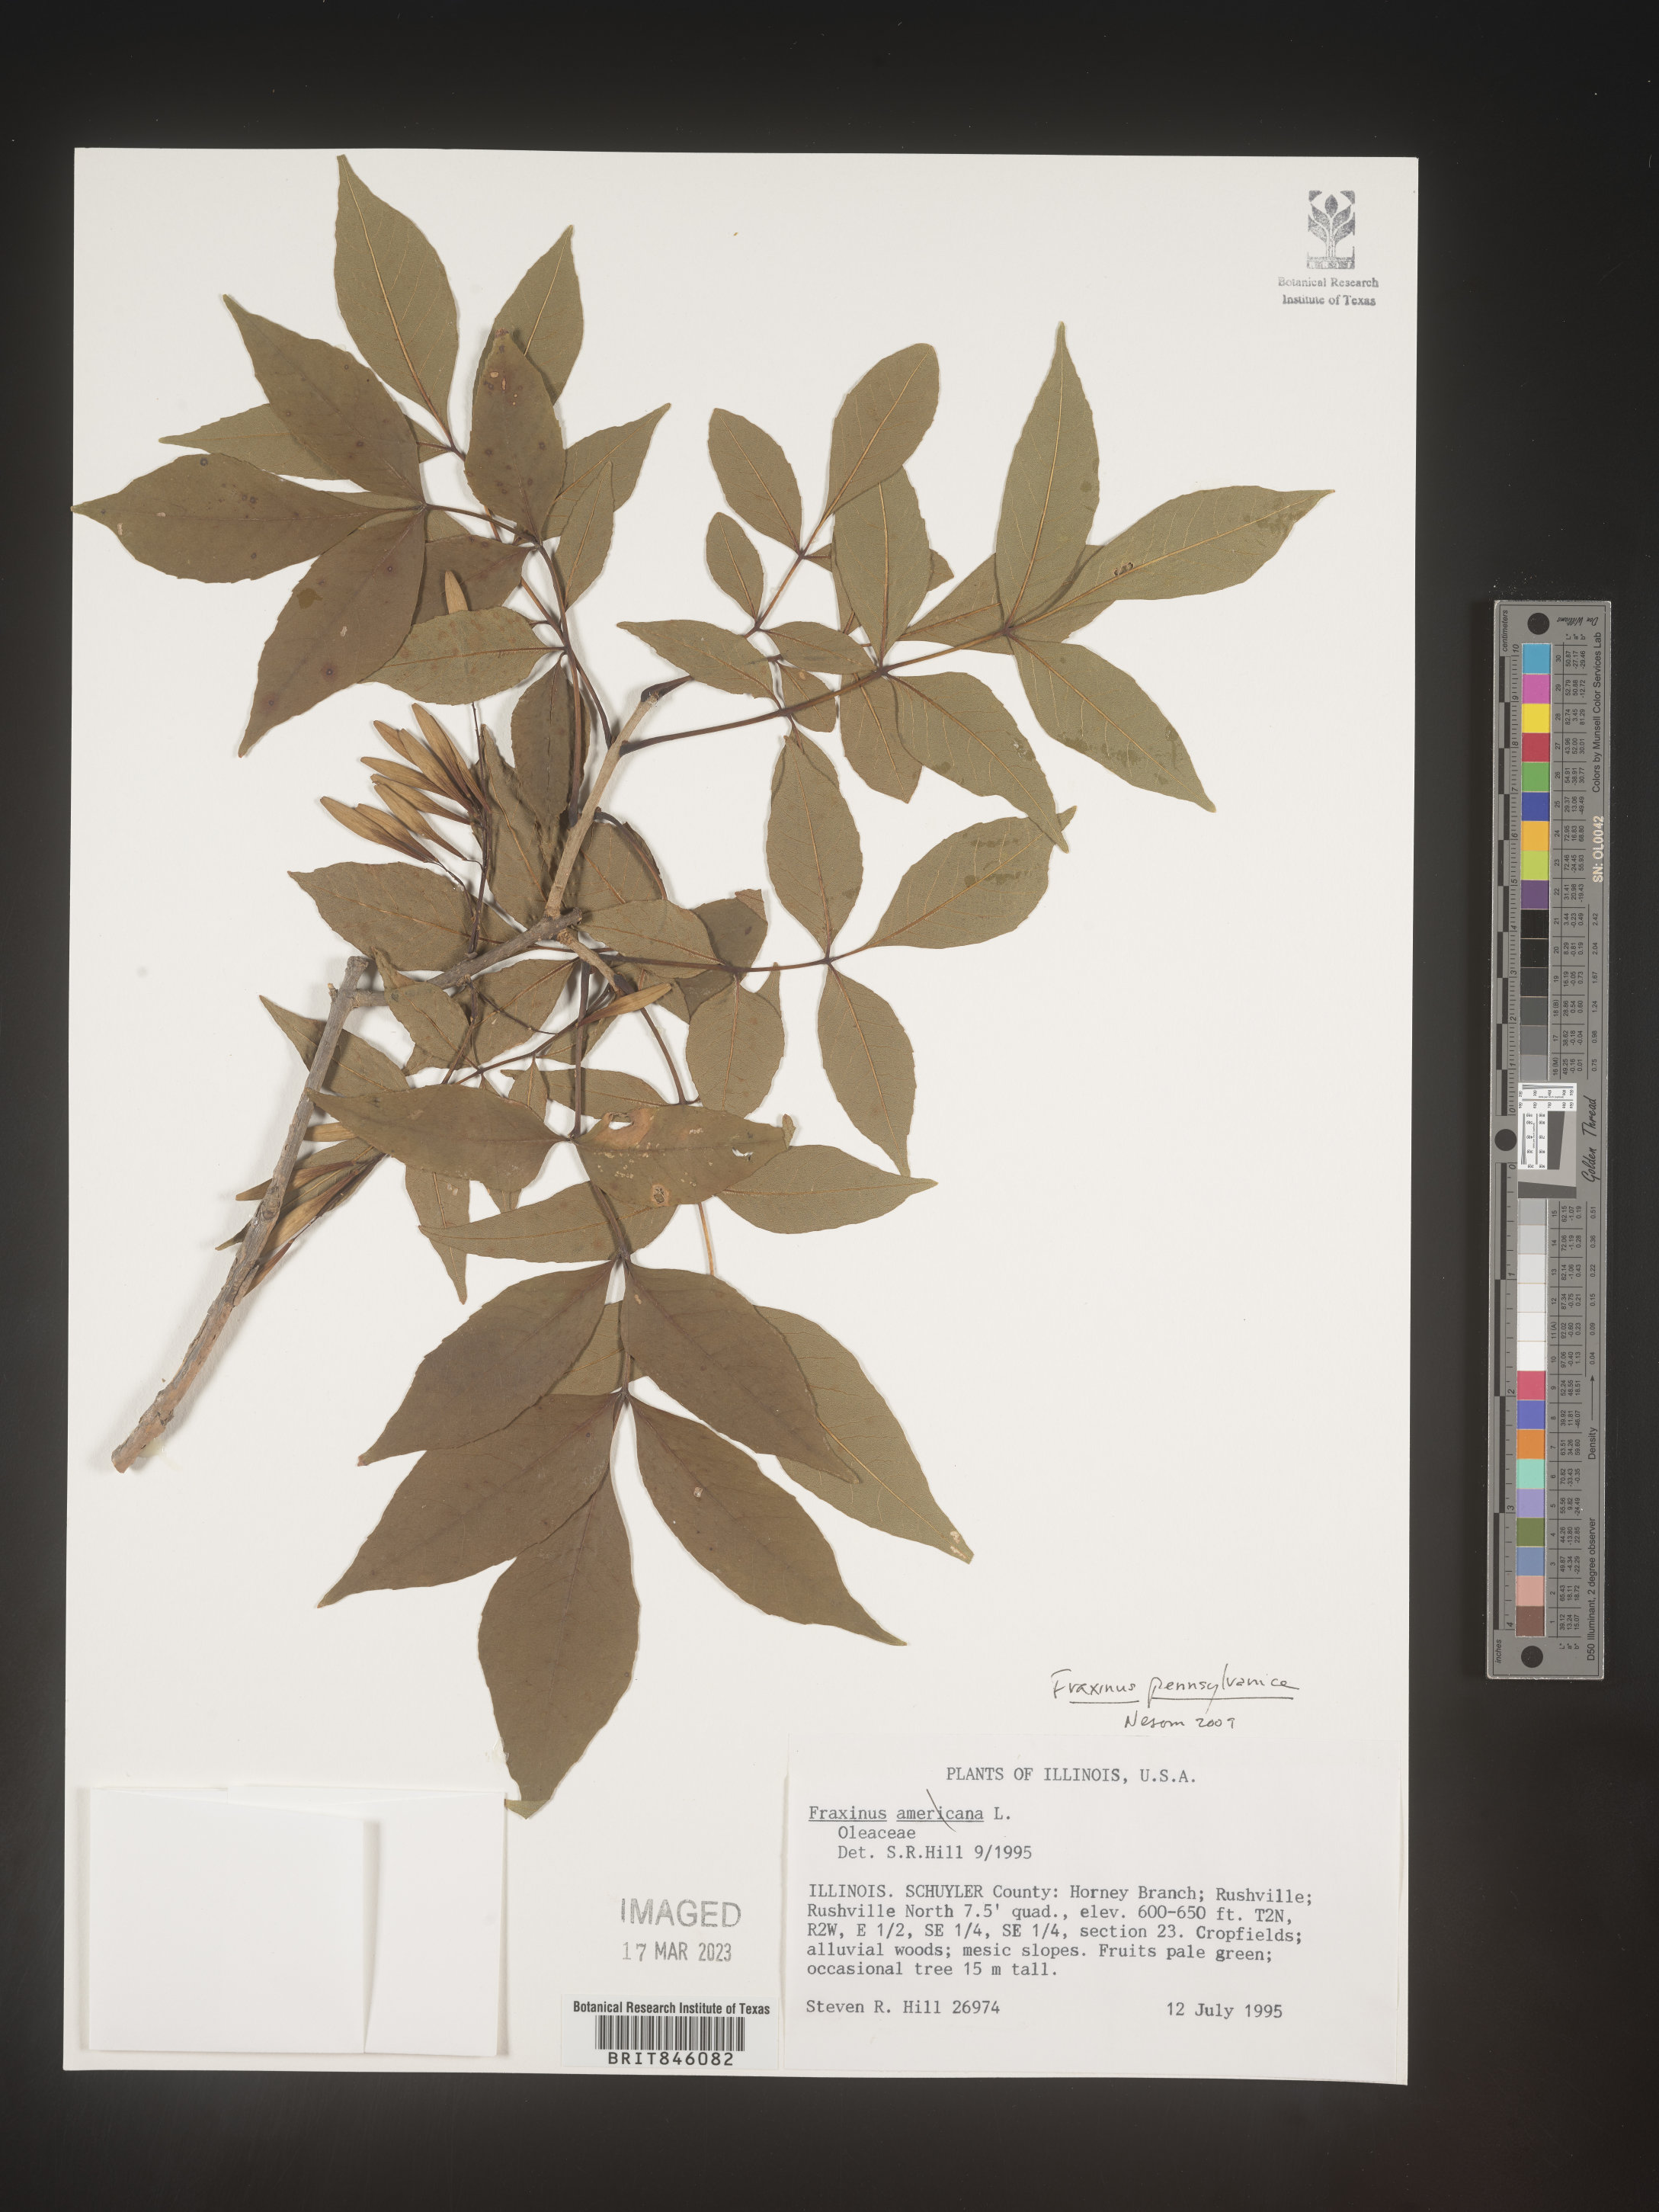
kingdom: Plantae
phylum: Tracheophyta
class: Magnoliopsida
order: Lamiales
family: Oleaceae
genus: Fraxinus
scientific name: Fraxinus pennsylvanica
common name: Green ash
